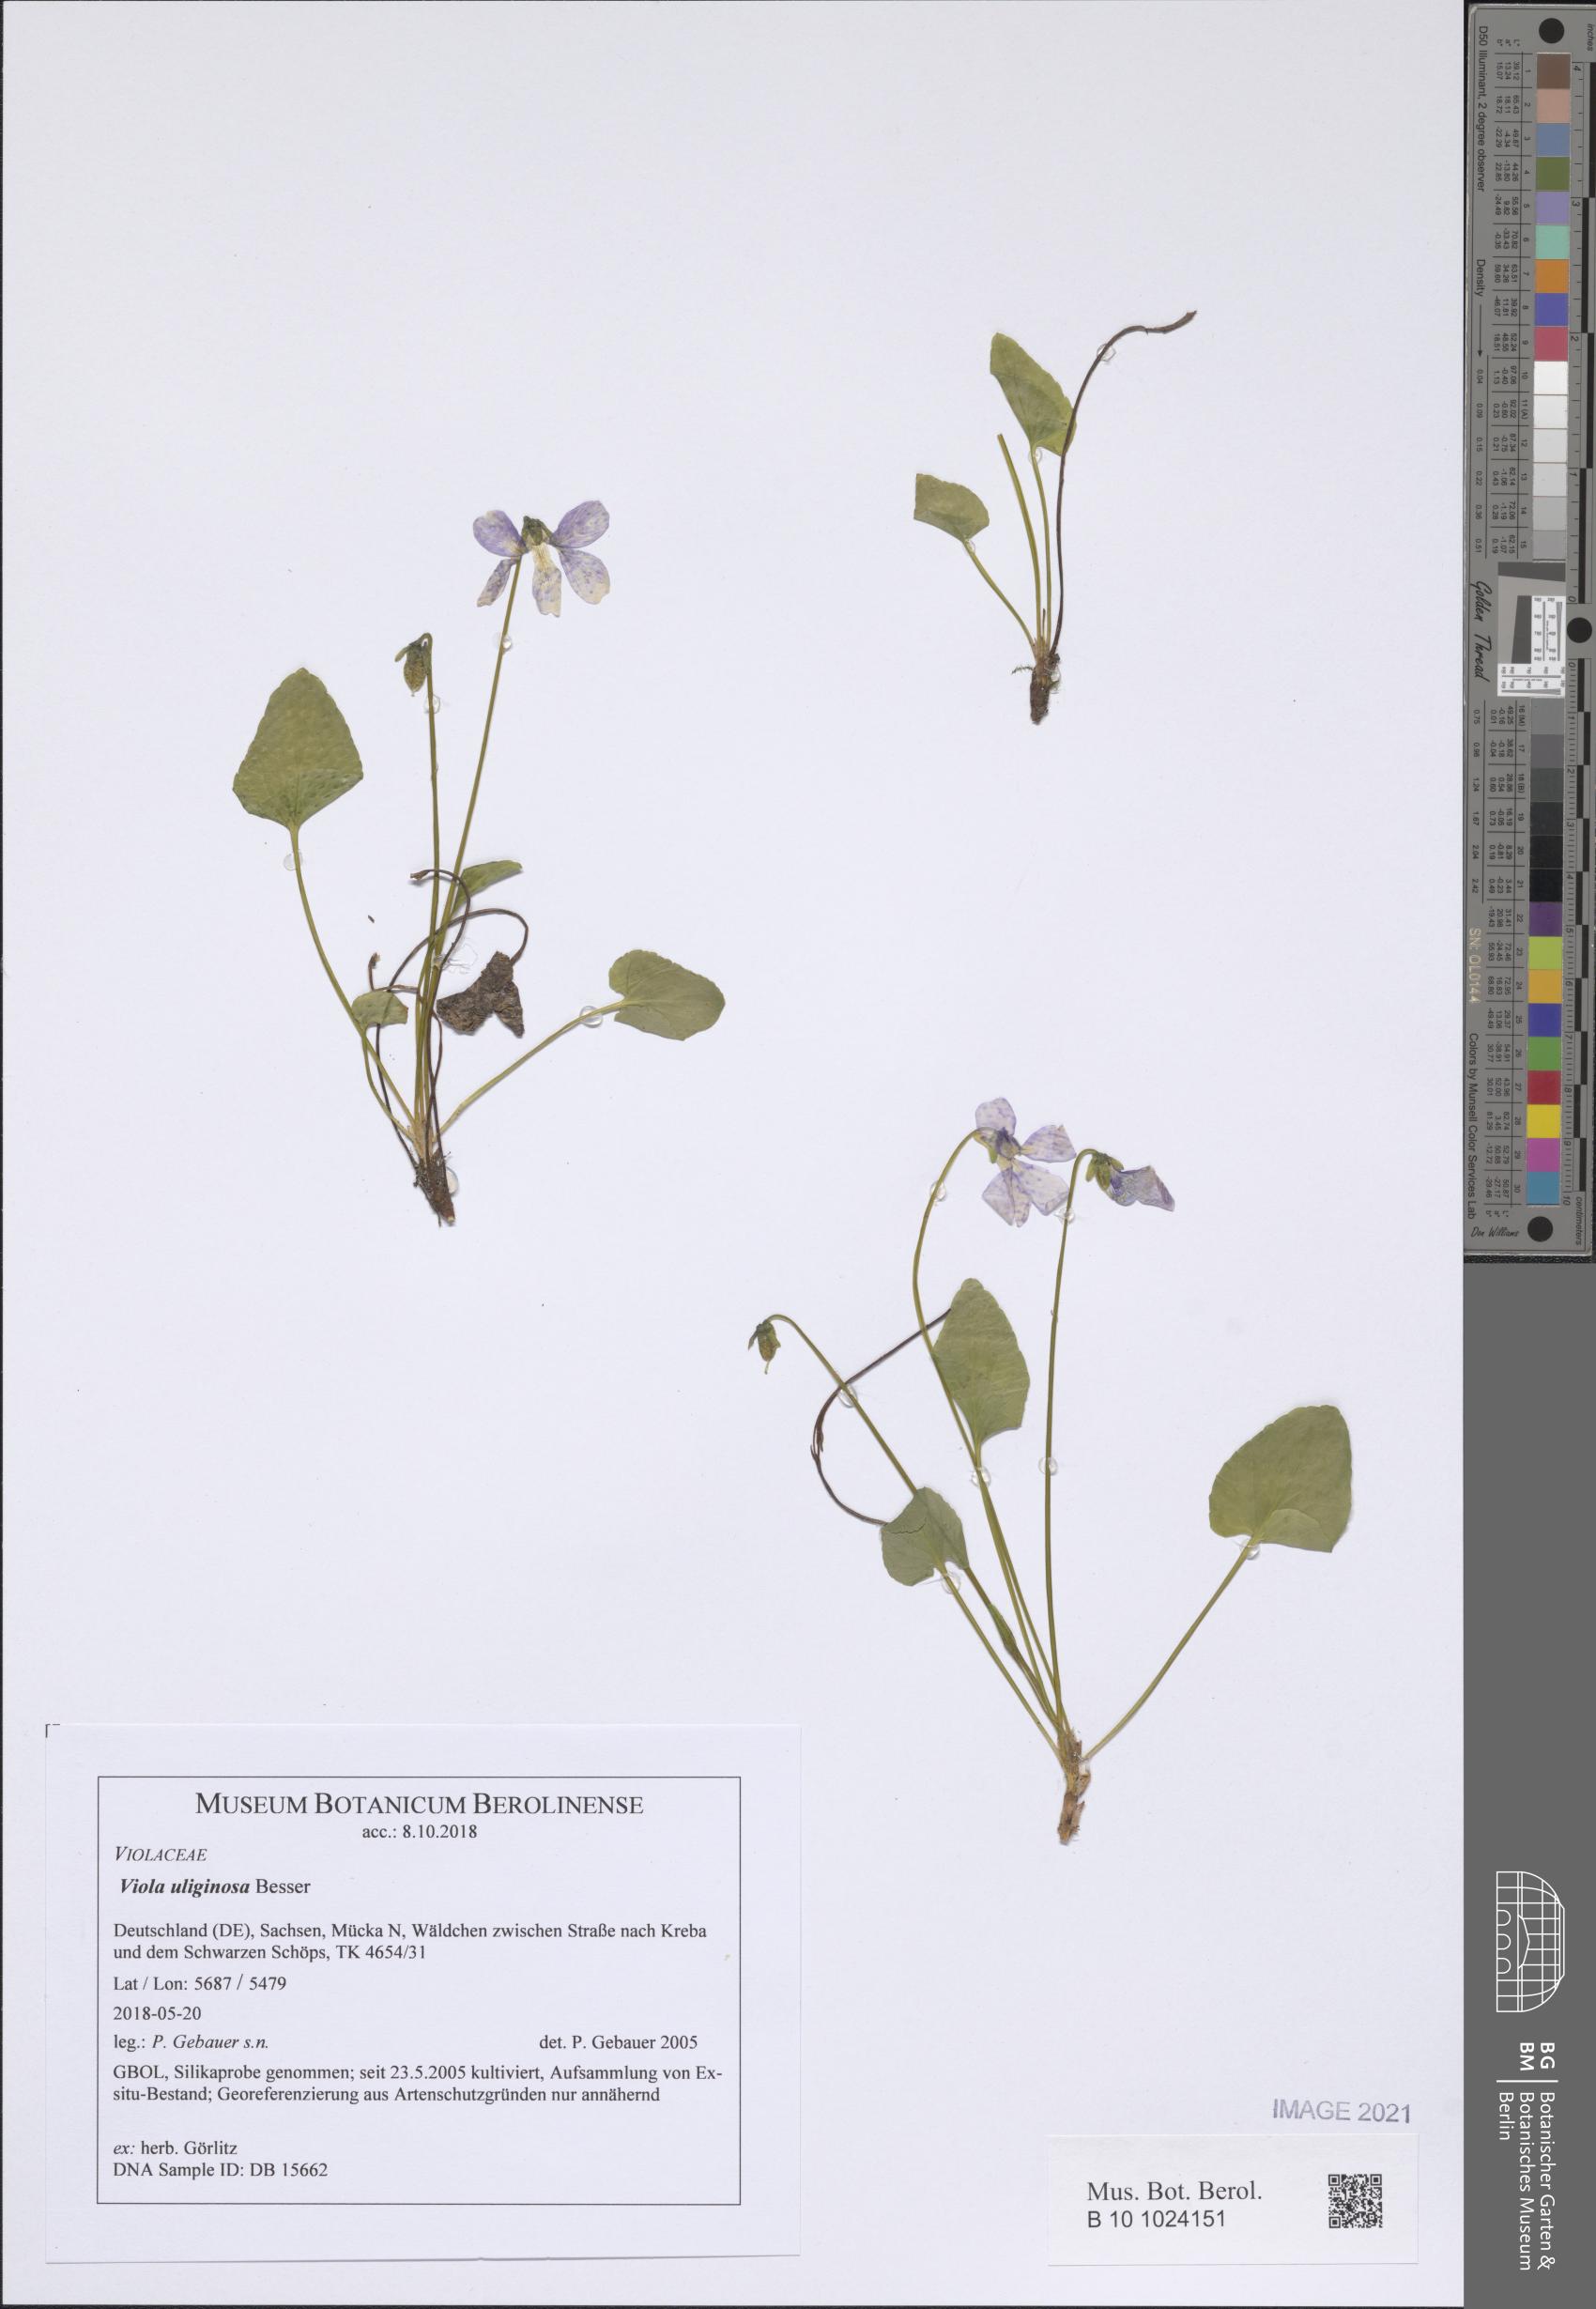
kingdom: Plantae
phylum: Tracheophyta
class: Magnoliopsida
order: Malpighiales
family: Violaceae
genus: Viola
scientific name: Viola uliginosa
